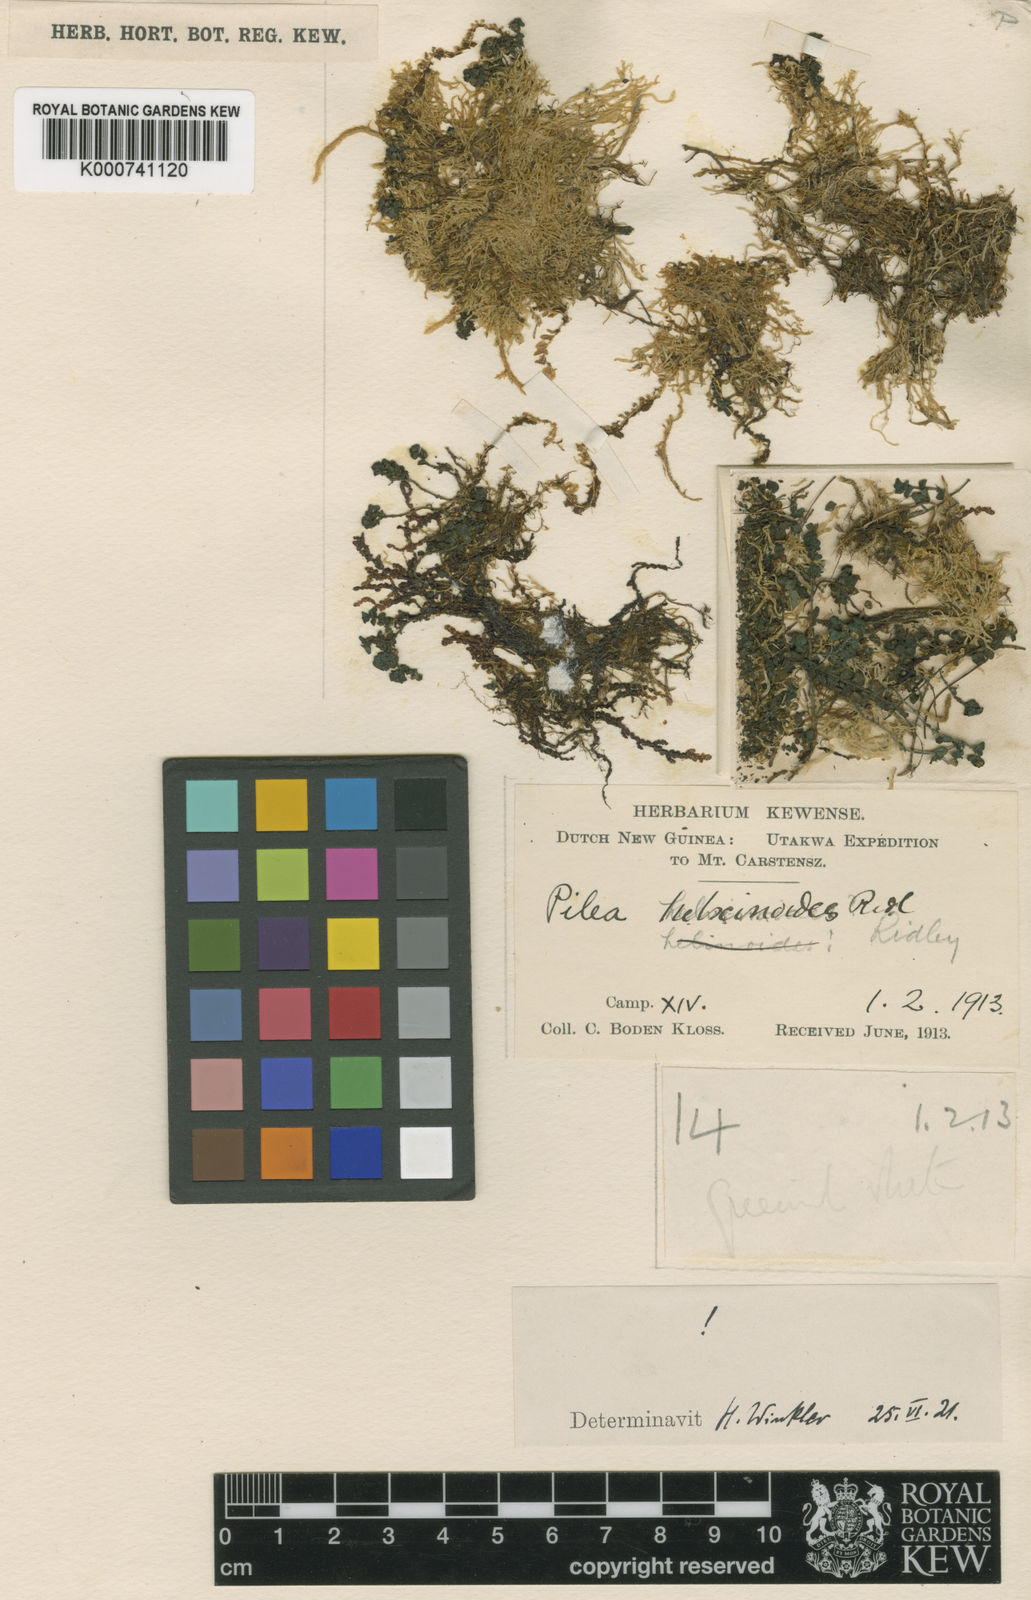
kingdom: Plantae
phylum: Tracheophyta
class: Magnoliopsida
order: Rosales
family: Urticaceae
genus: Pilea
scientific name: Pilea helxinoides
